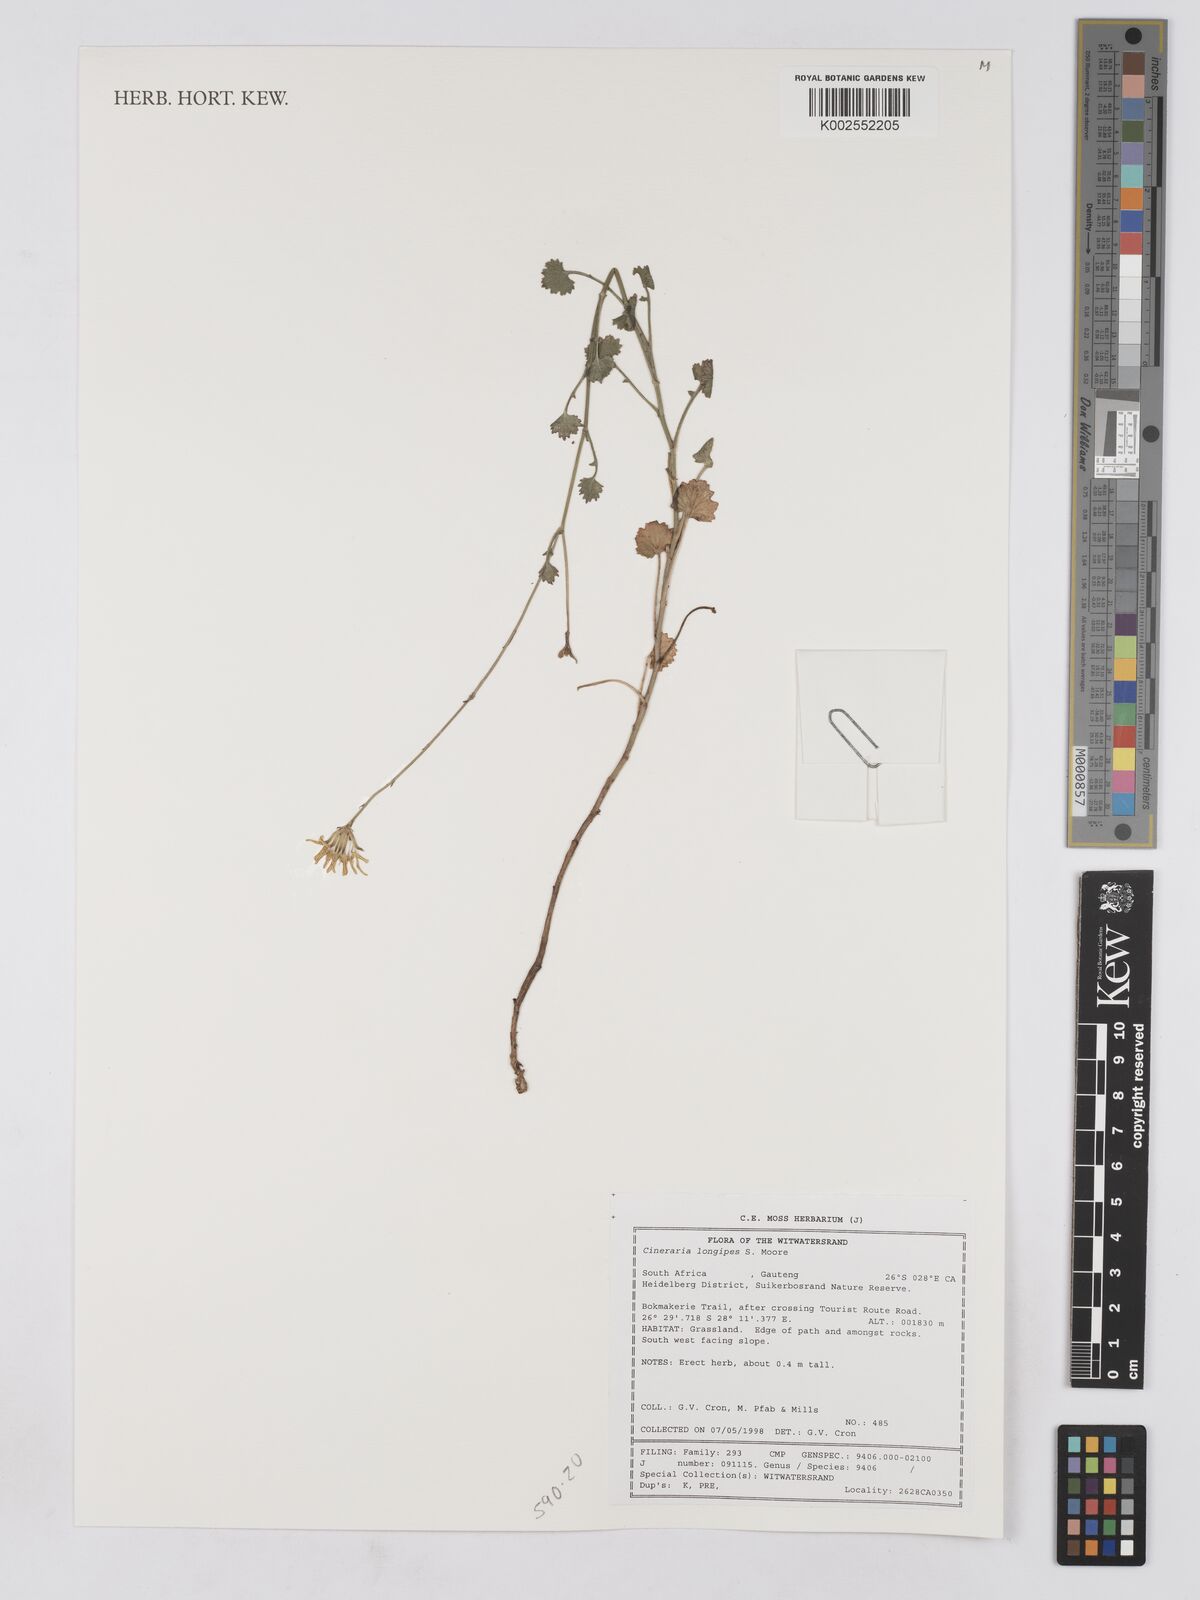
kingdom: Plantae
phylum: Tracheophyta
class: Magnoliopsida
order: Asterales
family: Asteraceae
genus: Cineraria
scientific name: Cineraria longipes
